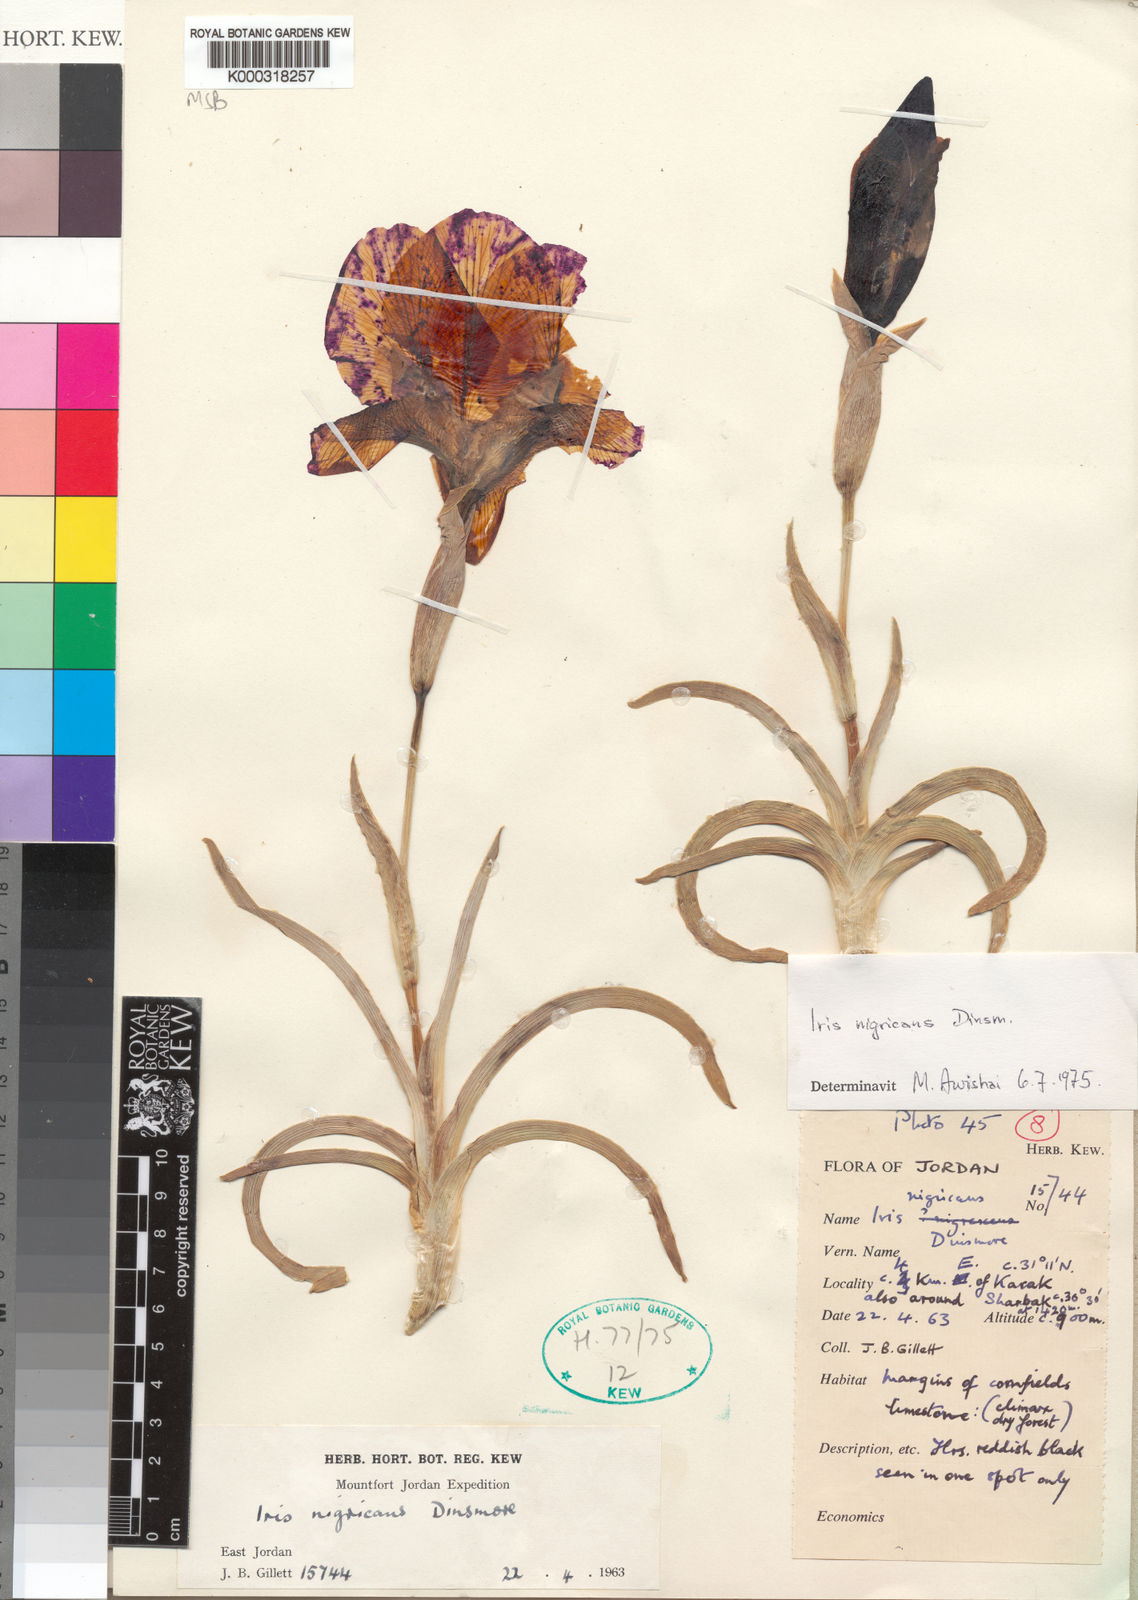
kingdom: Plantae
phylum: Tracheophyta
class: Liliopsida
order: Asparagales
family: Iridaceae
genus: Iris
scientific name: Iris nigricans
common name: Black iris
